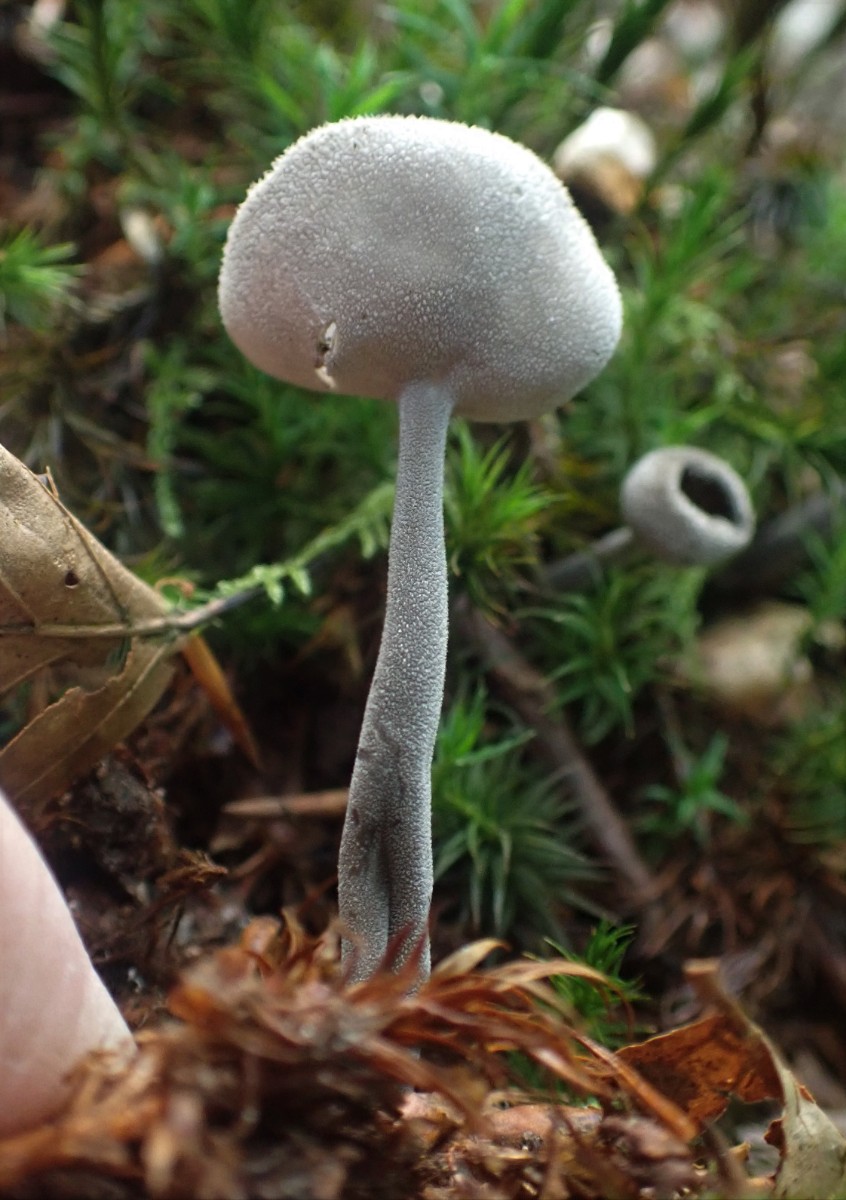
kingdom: Fungi
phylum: Ascomycota
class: Pezizomycetes
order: Pezizales
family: Helvellaceae
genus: Helvella
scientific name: Helvella macropus
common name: højstokket foldhat
